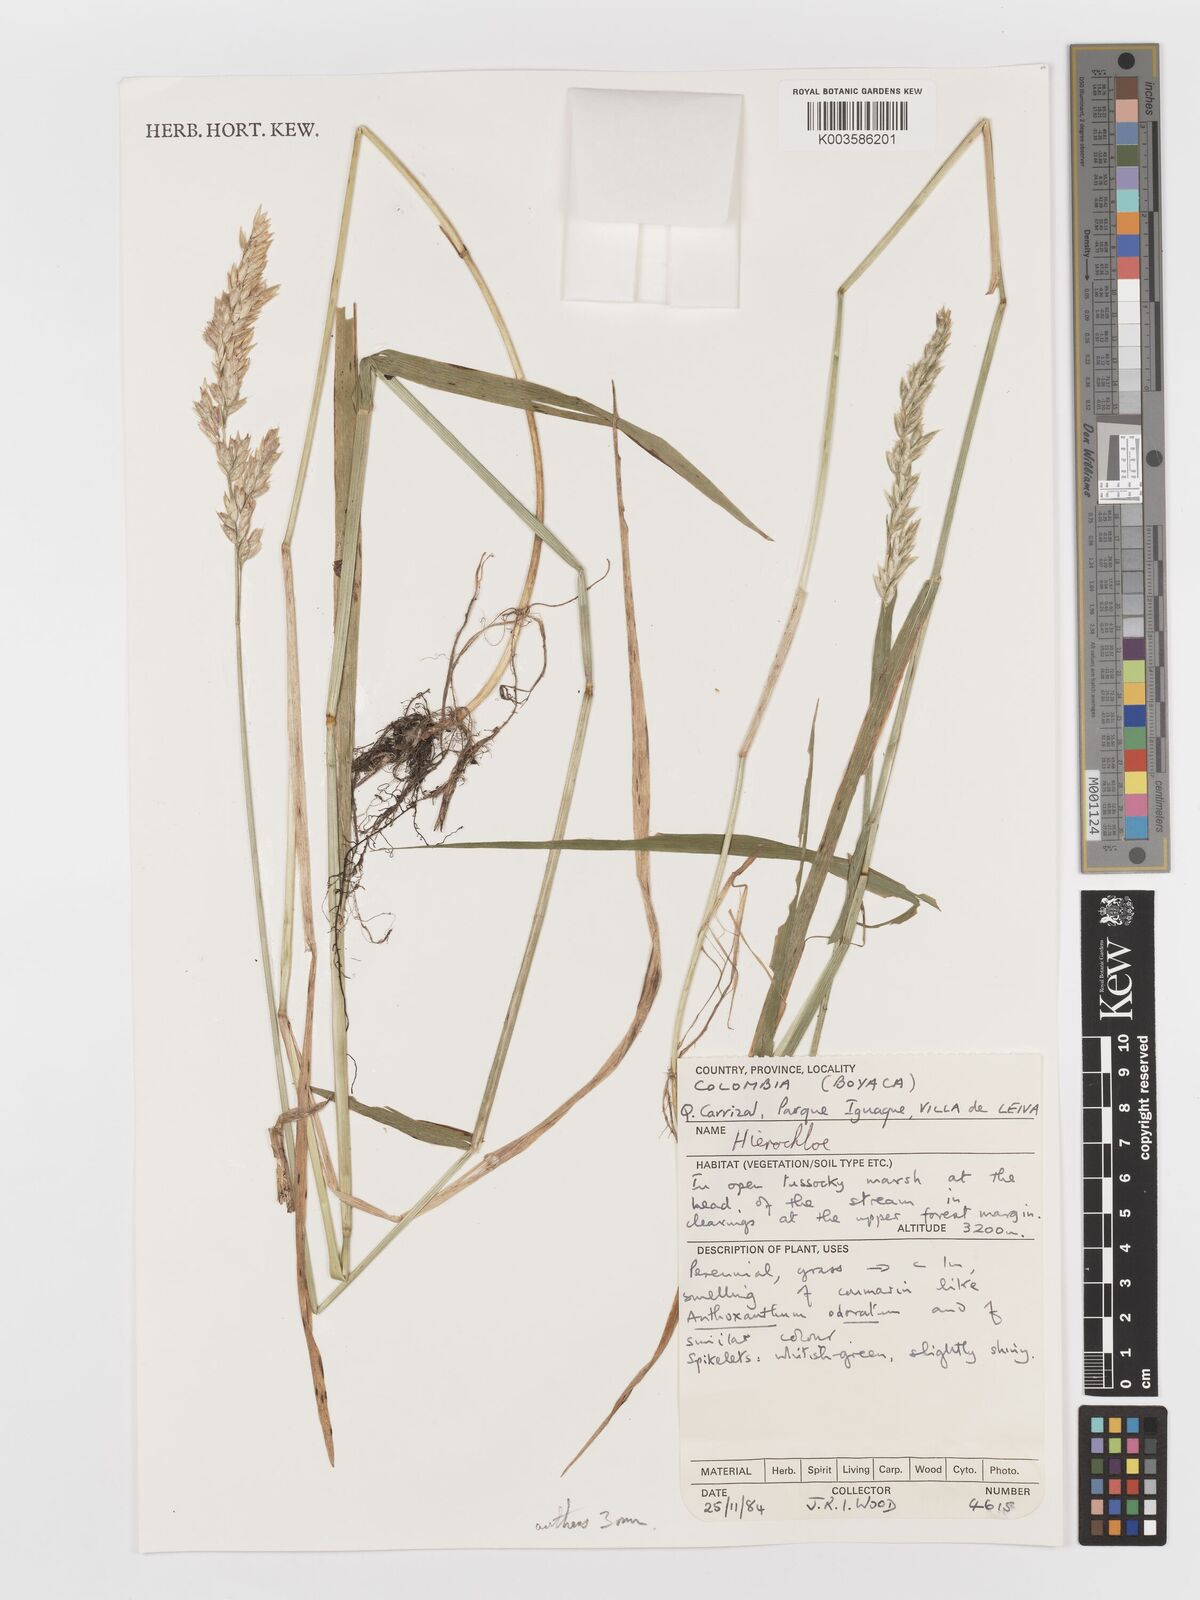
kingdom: Plantae
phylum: Tracheophyta
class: Liliopsida
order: Poales
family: Poaceae
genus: Anthoxanthum
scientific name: Anthoxanthum redolens
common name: Sweet holy grass
